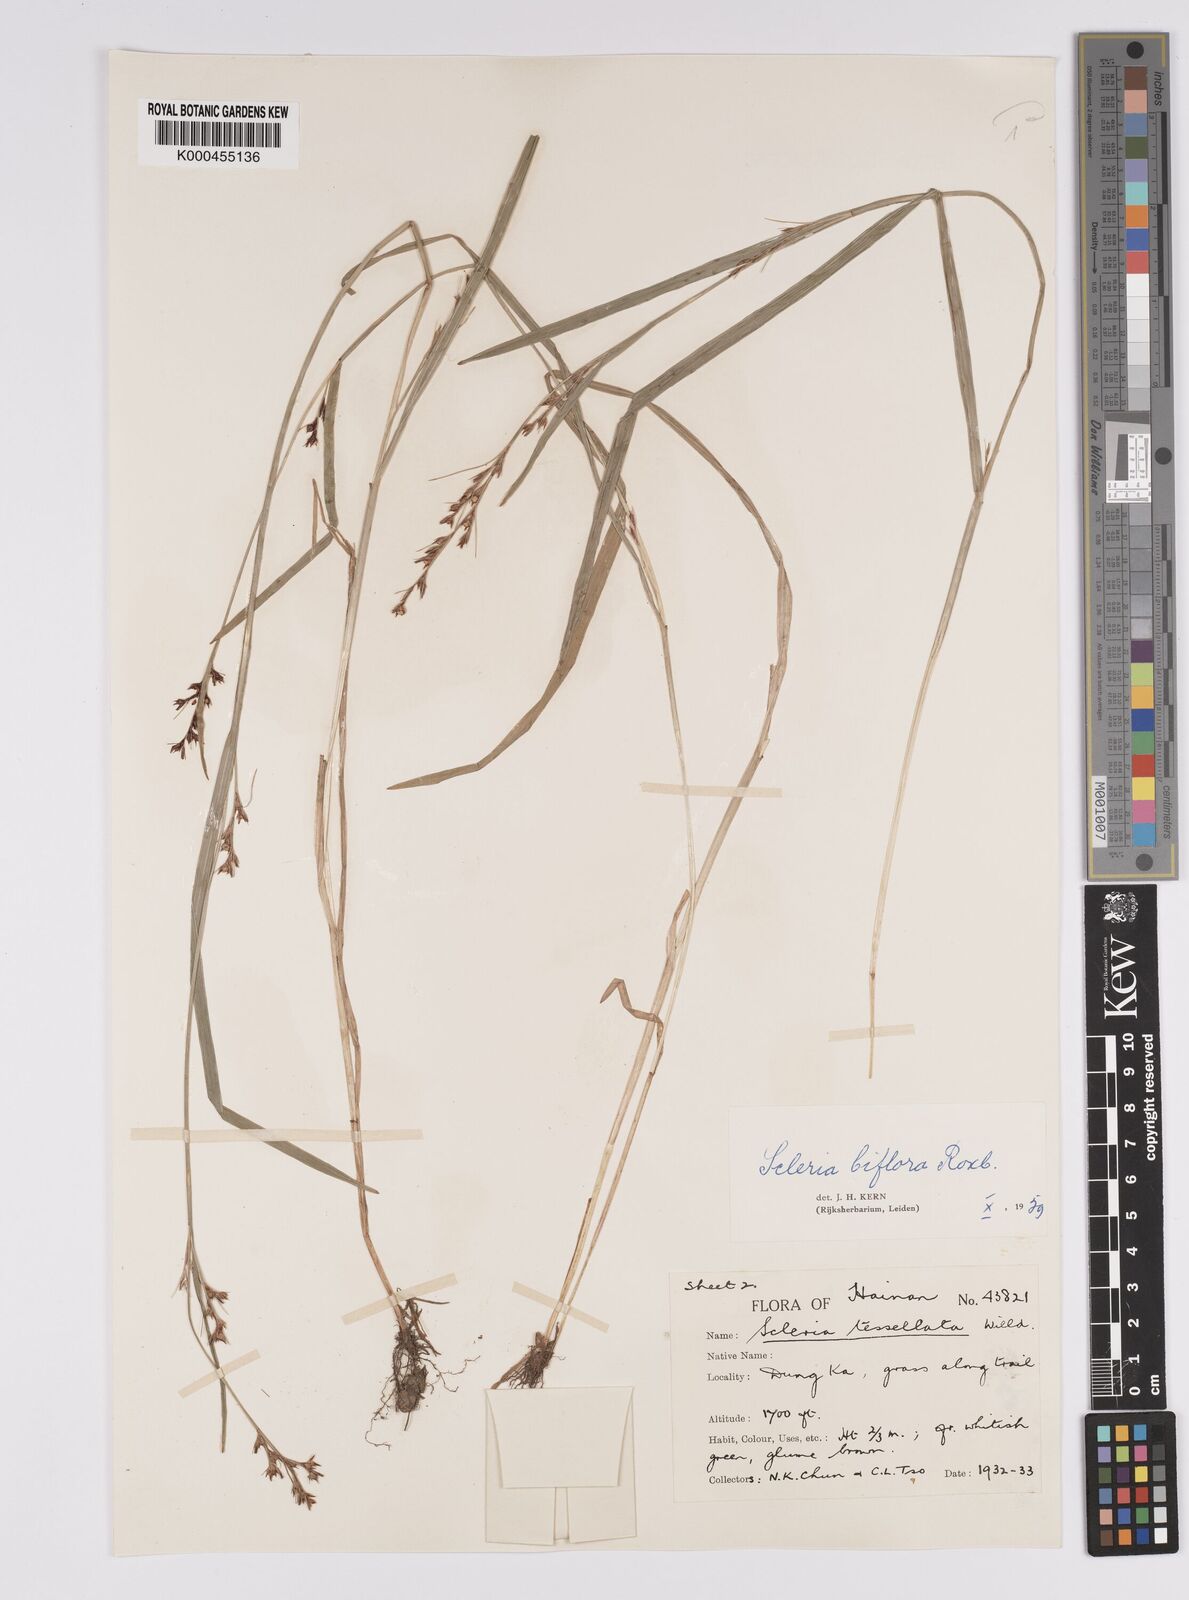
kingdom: Plantae
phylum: Tracheophyta
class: Liliopsida
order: Poales
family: Cyperaceae
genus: Scleria
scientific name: Scleria biflora
